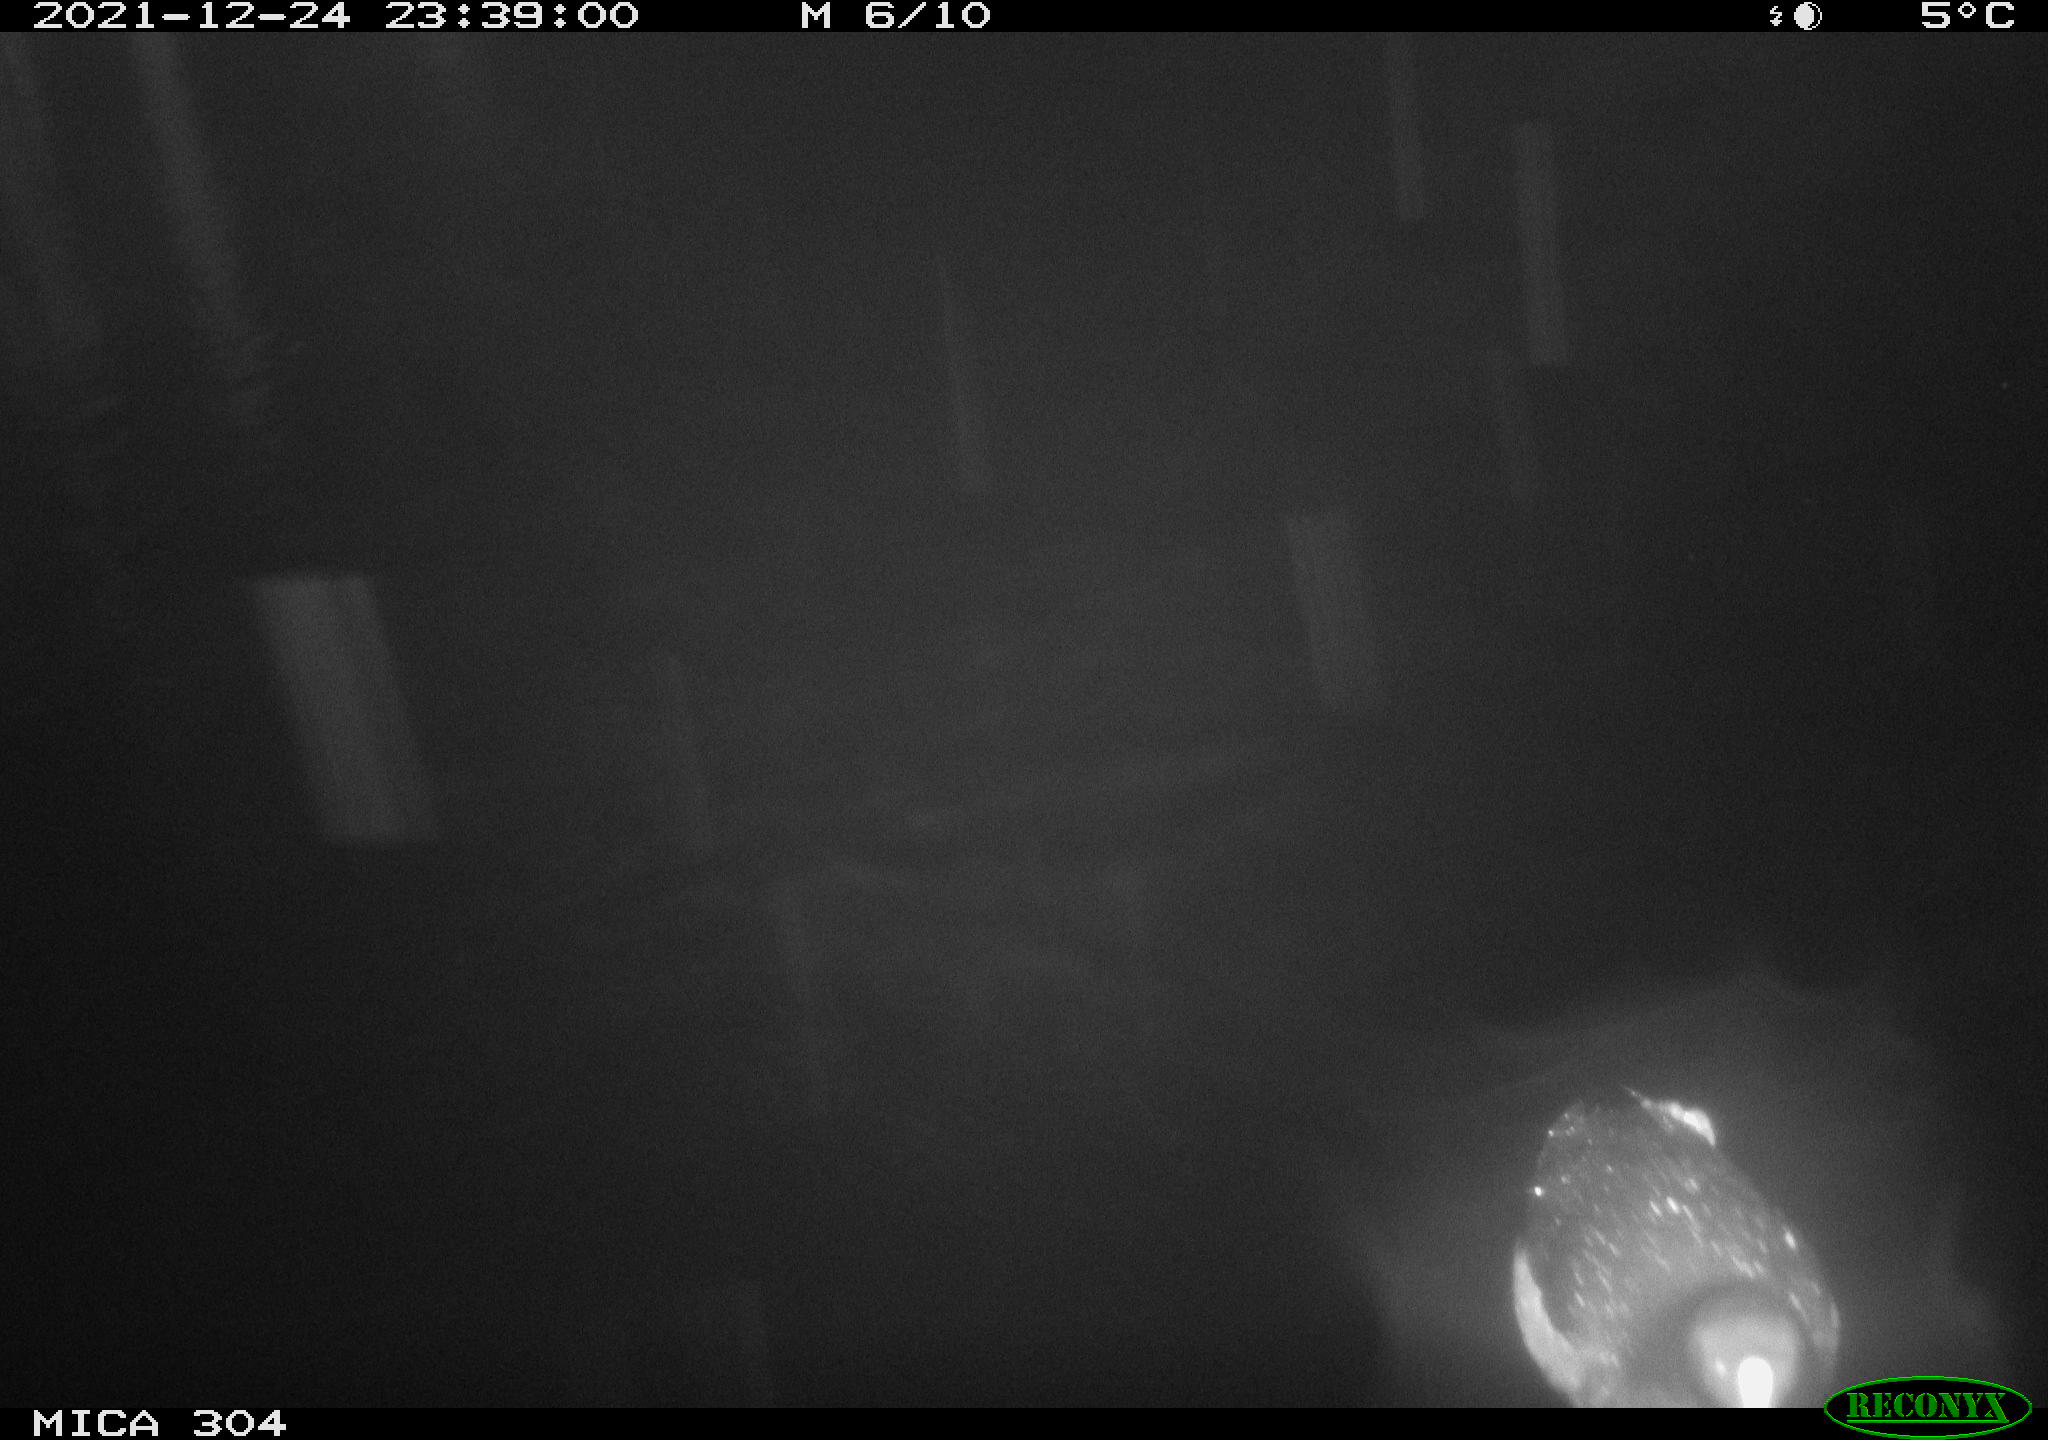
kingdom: Animalia
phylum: Chordata
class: Aves
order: Gruiformes
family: Rallidae
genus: Fulica
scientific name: Fulica atra
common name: Eurasian coot
